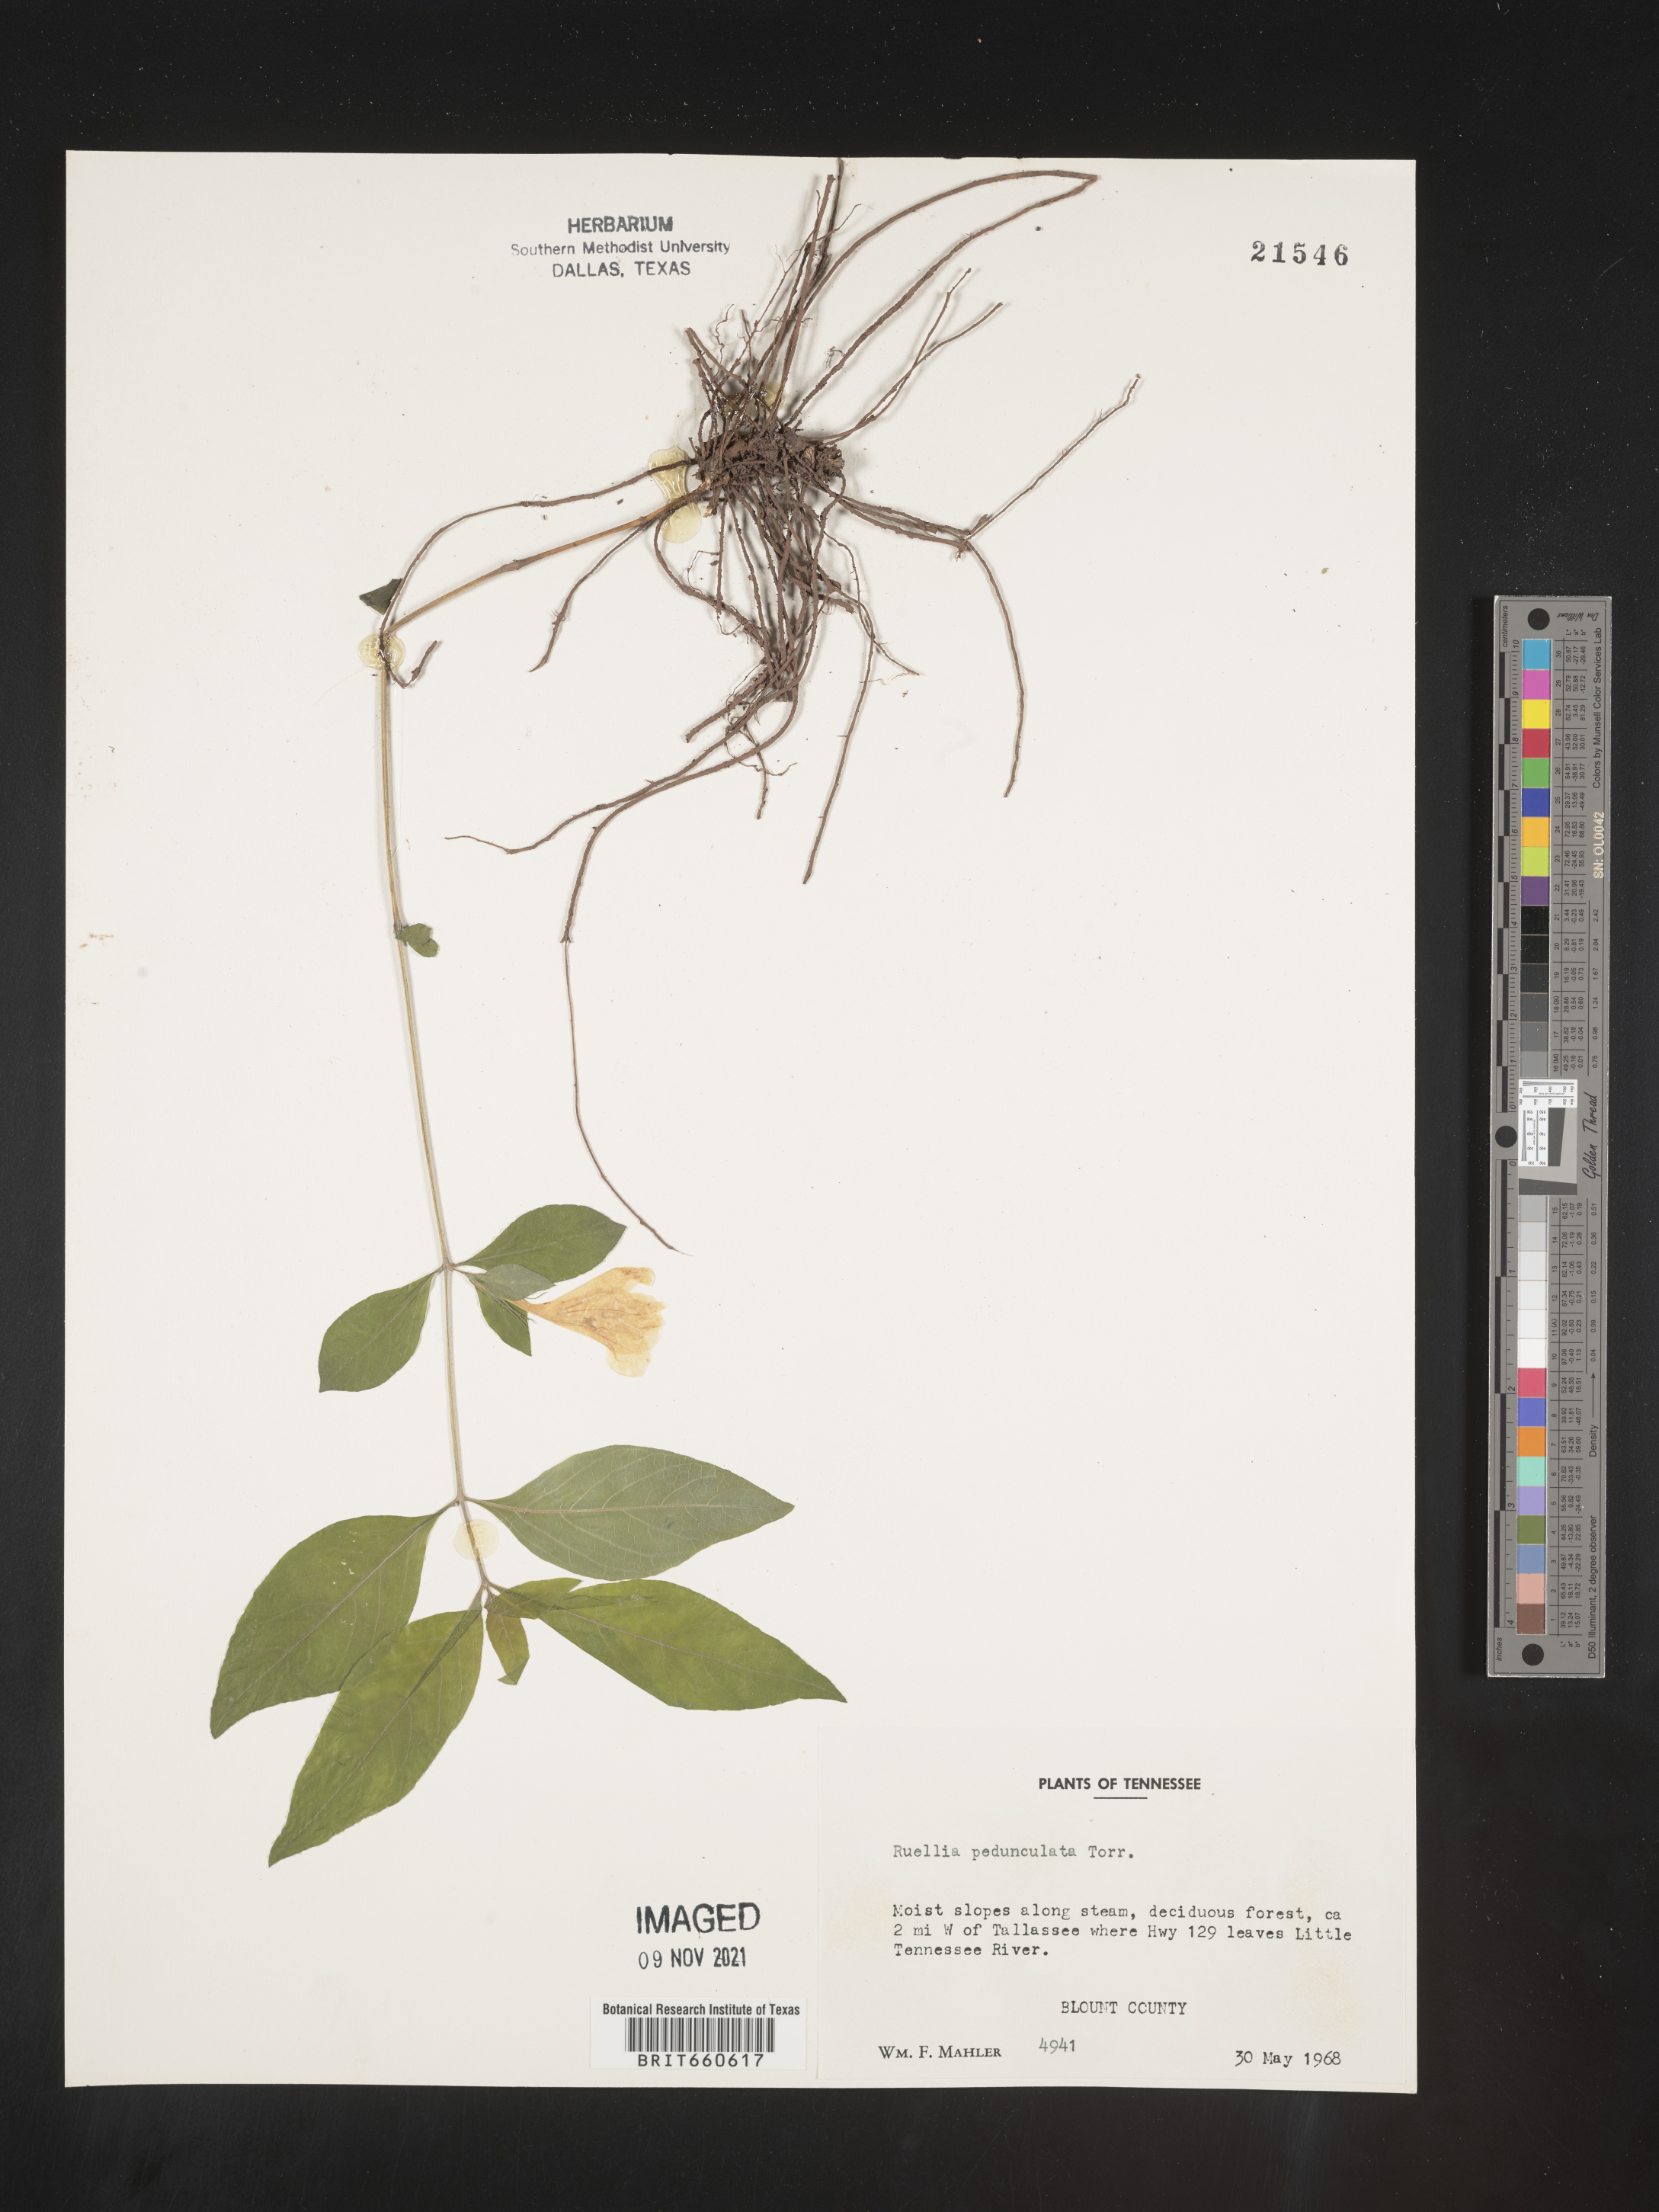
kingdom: Plantae
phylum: Tracheophyta
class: Magnoliopsida
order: Lamiales
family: Acanthaceae
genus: Ruellia
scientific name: Ruellia pedunculata
